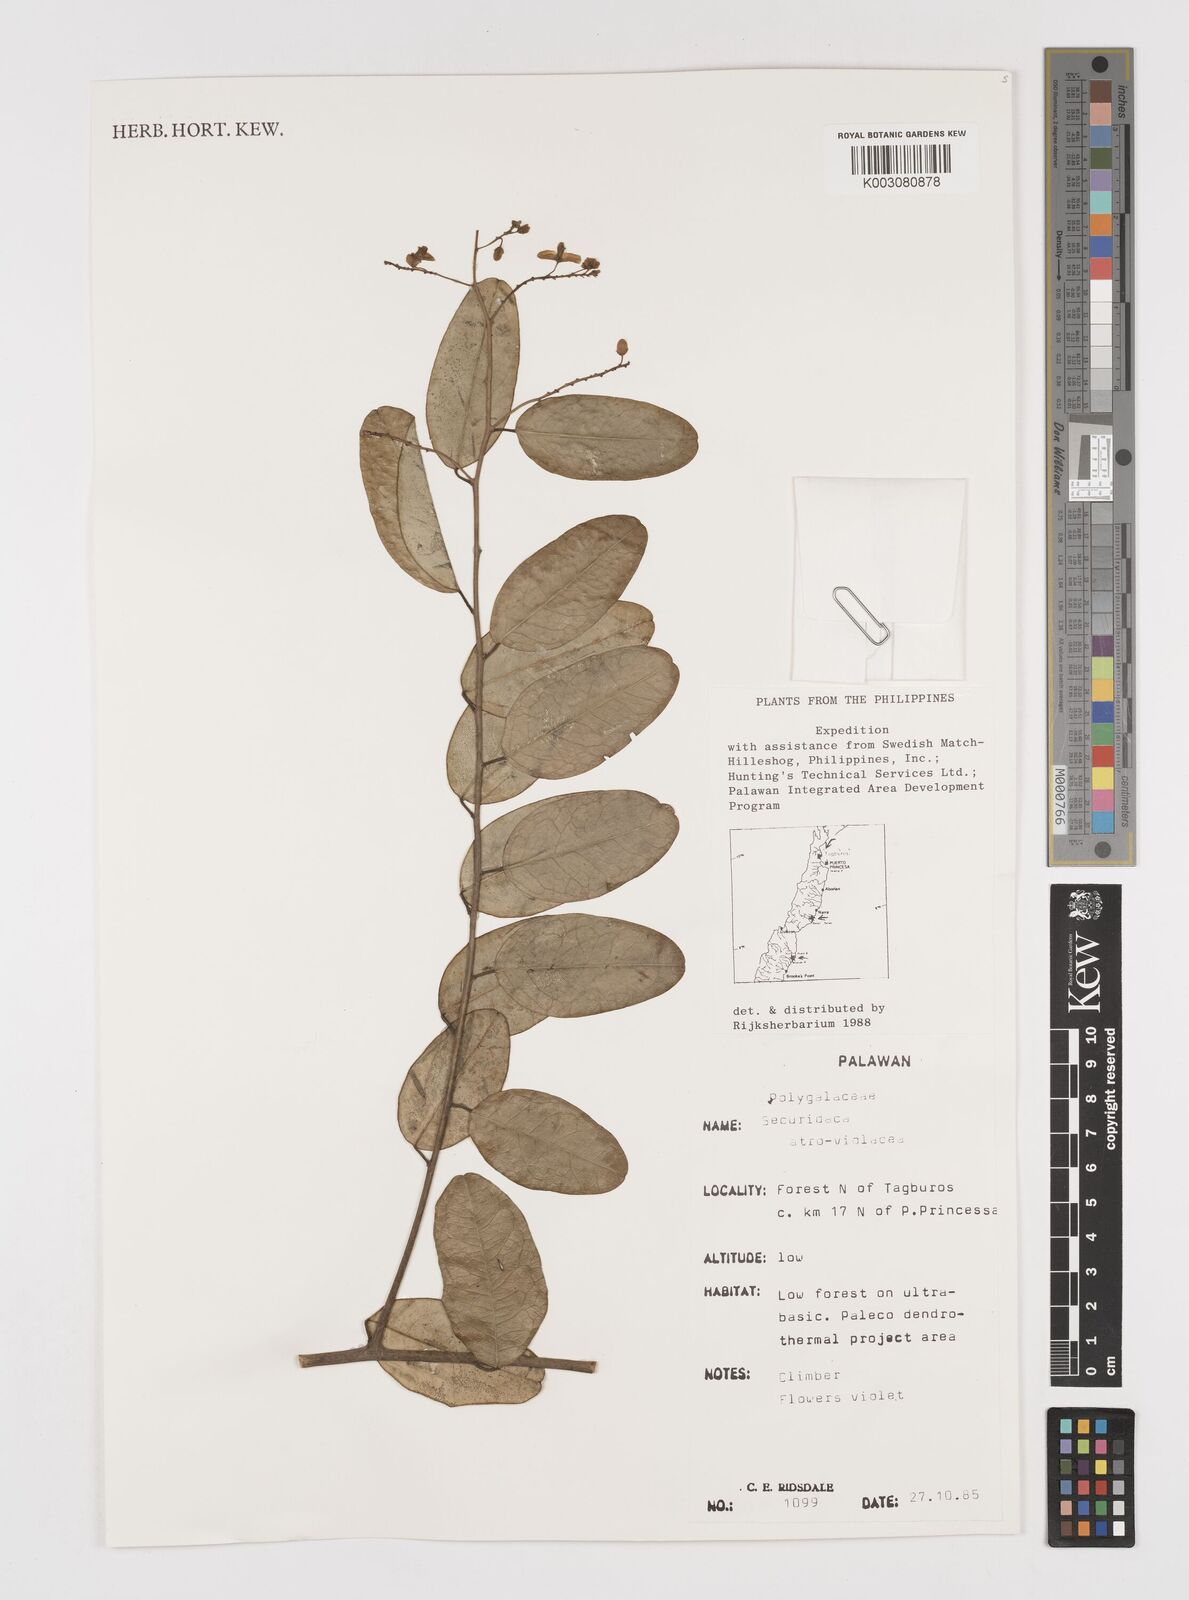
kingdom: Plantae
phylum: Tracheophyta
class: Magnoliopsida
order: Fabales
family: Polygalaceae
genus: Securidaca
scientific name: Securidaca atroviolacea
